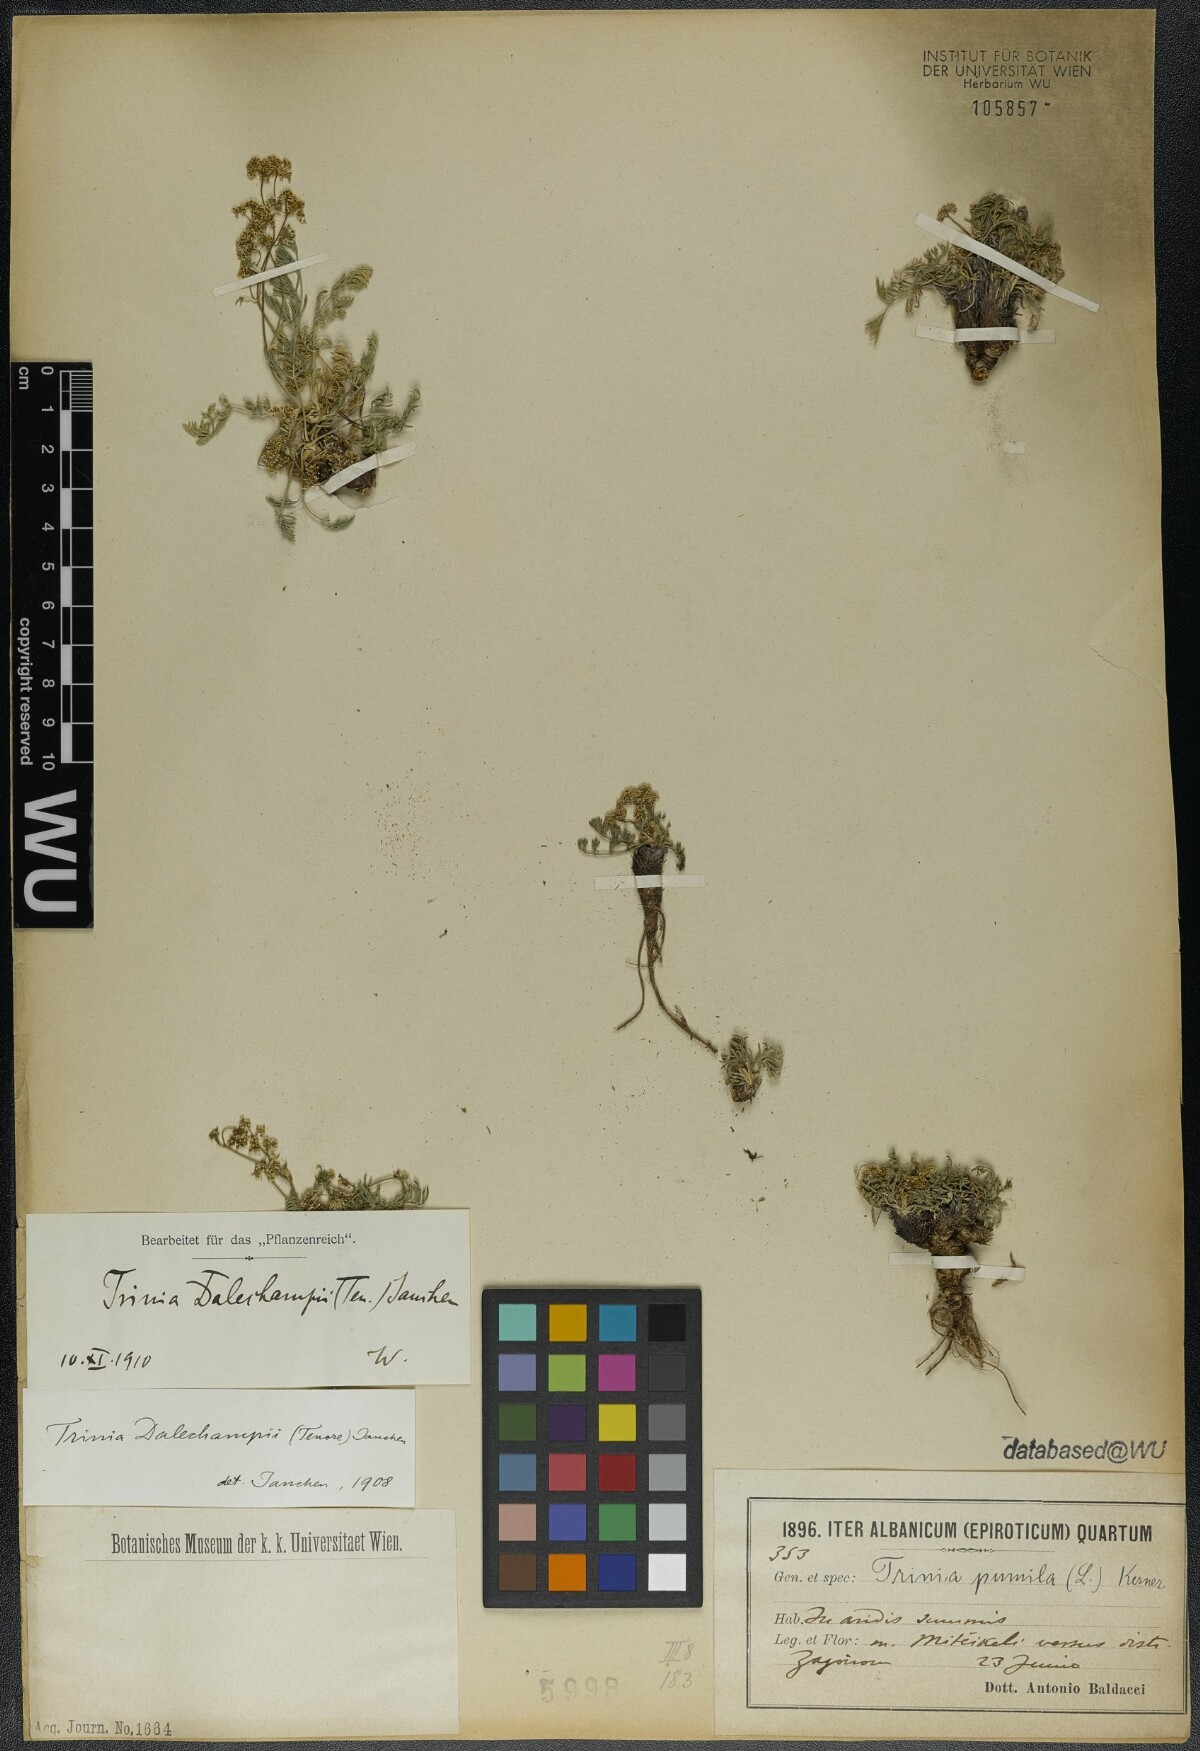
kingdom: Plantae
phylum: Tracheophyta
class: Magnoliopsida
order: Apiales
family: Apiaceae
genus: Trinia
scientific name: Trinia dalechampii
